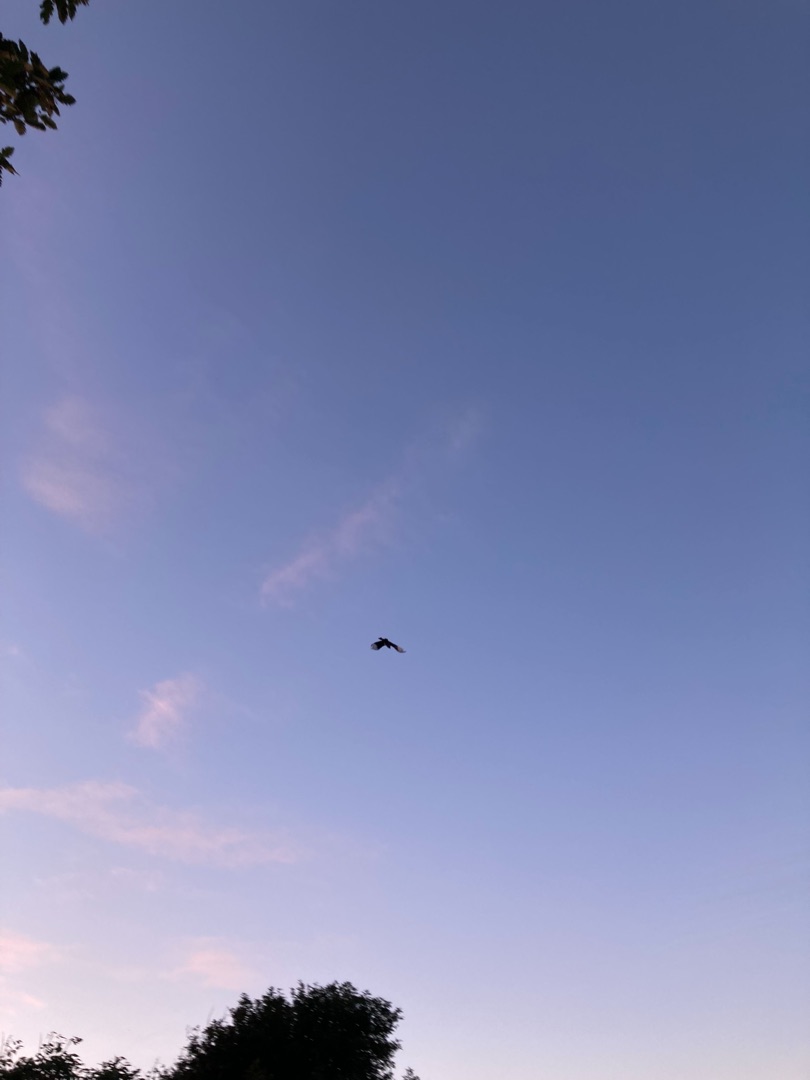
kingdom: Animalia
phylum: Chordata
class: Aves
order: Passeriformes
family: Corvidae
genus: Pica
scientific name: Pica pica
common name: Husskade
